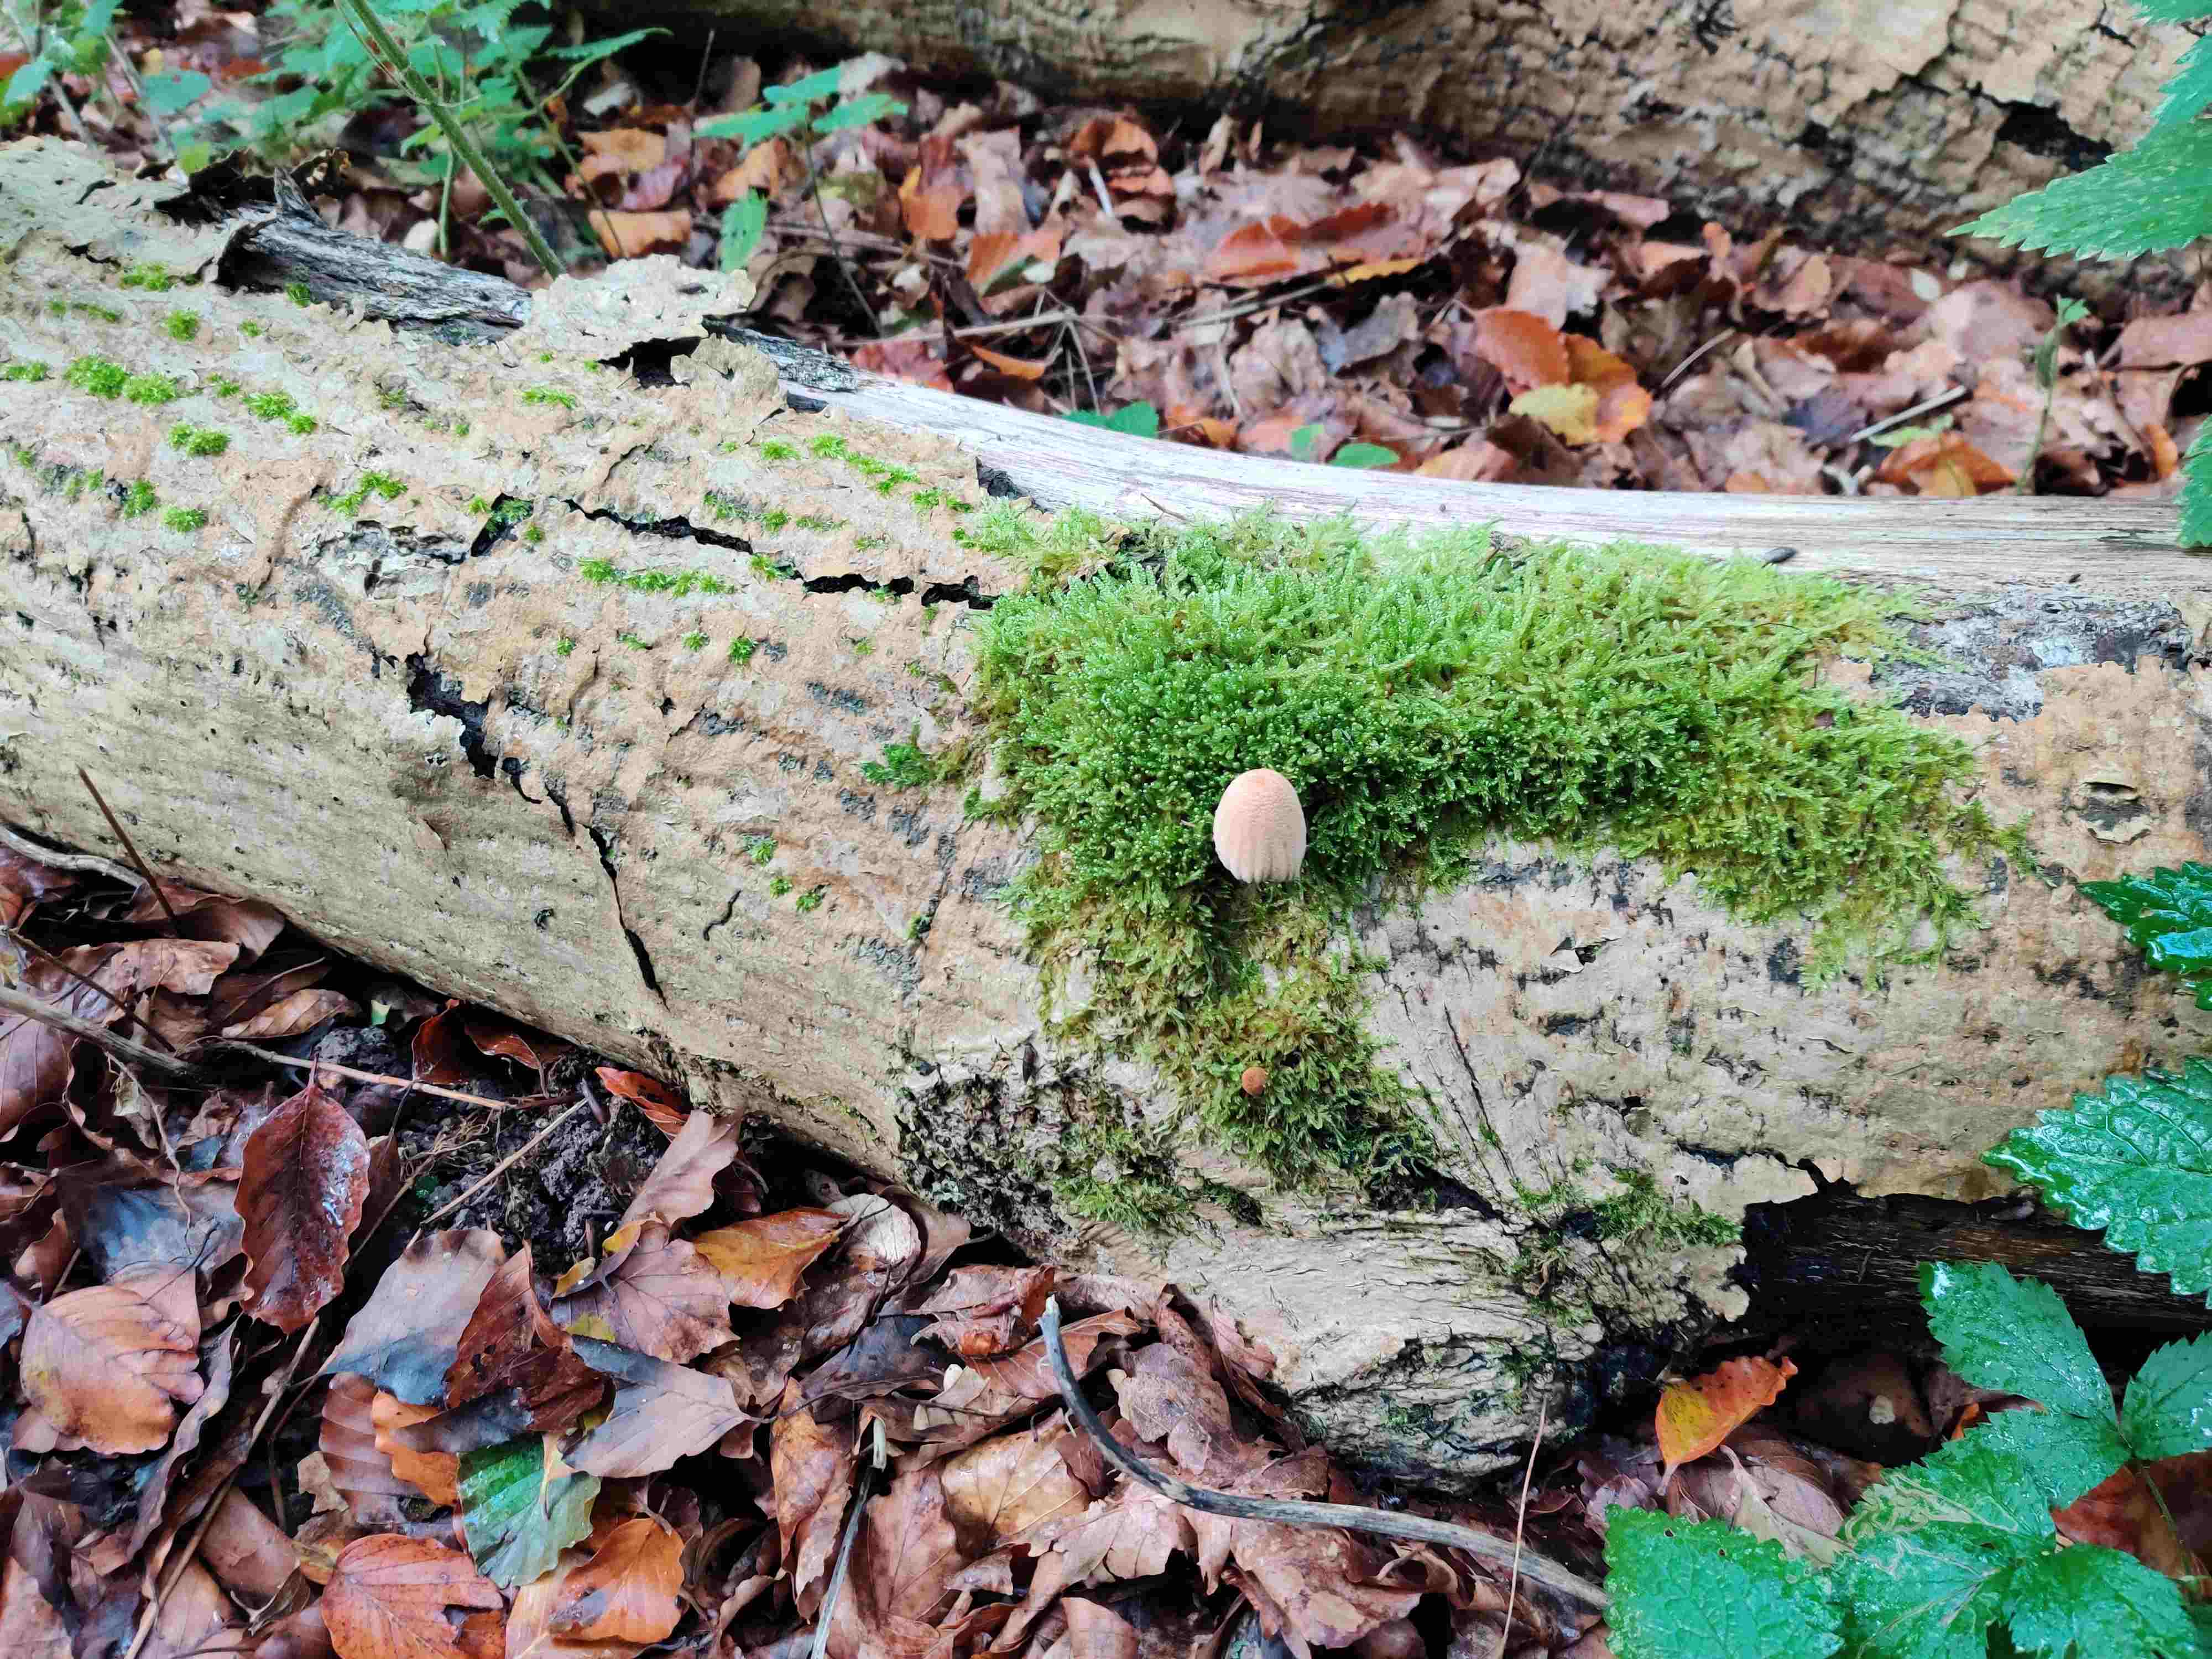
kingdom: Fungi
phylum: Basidiomycota
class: Agaricomycetes
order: Agaricales
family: Psathyrellaceae
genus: Coprinellus
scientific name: Coprinellus
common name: blækhat
